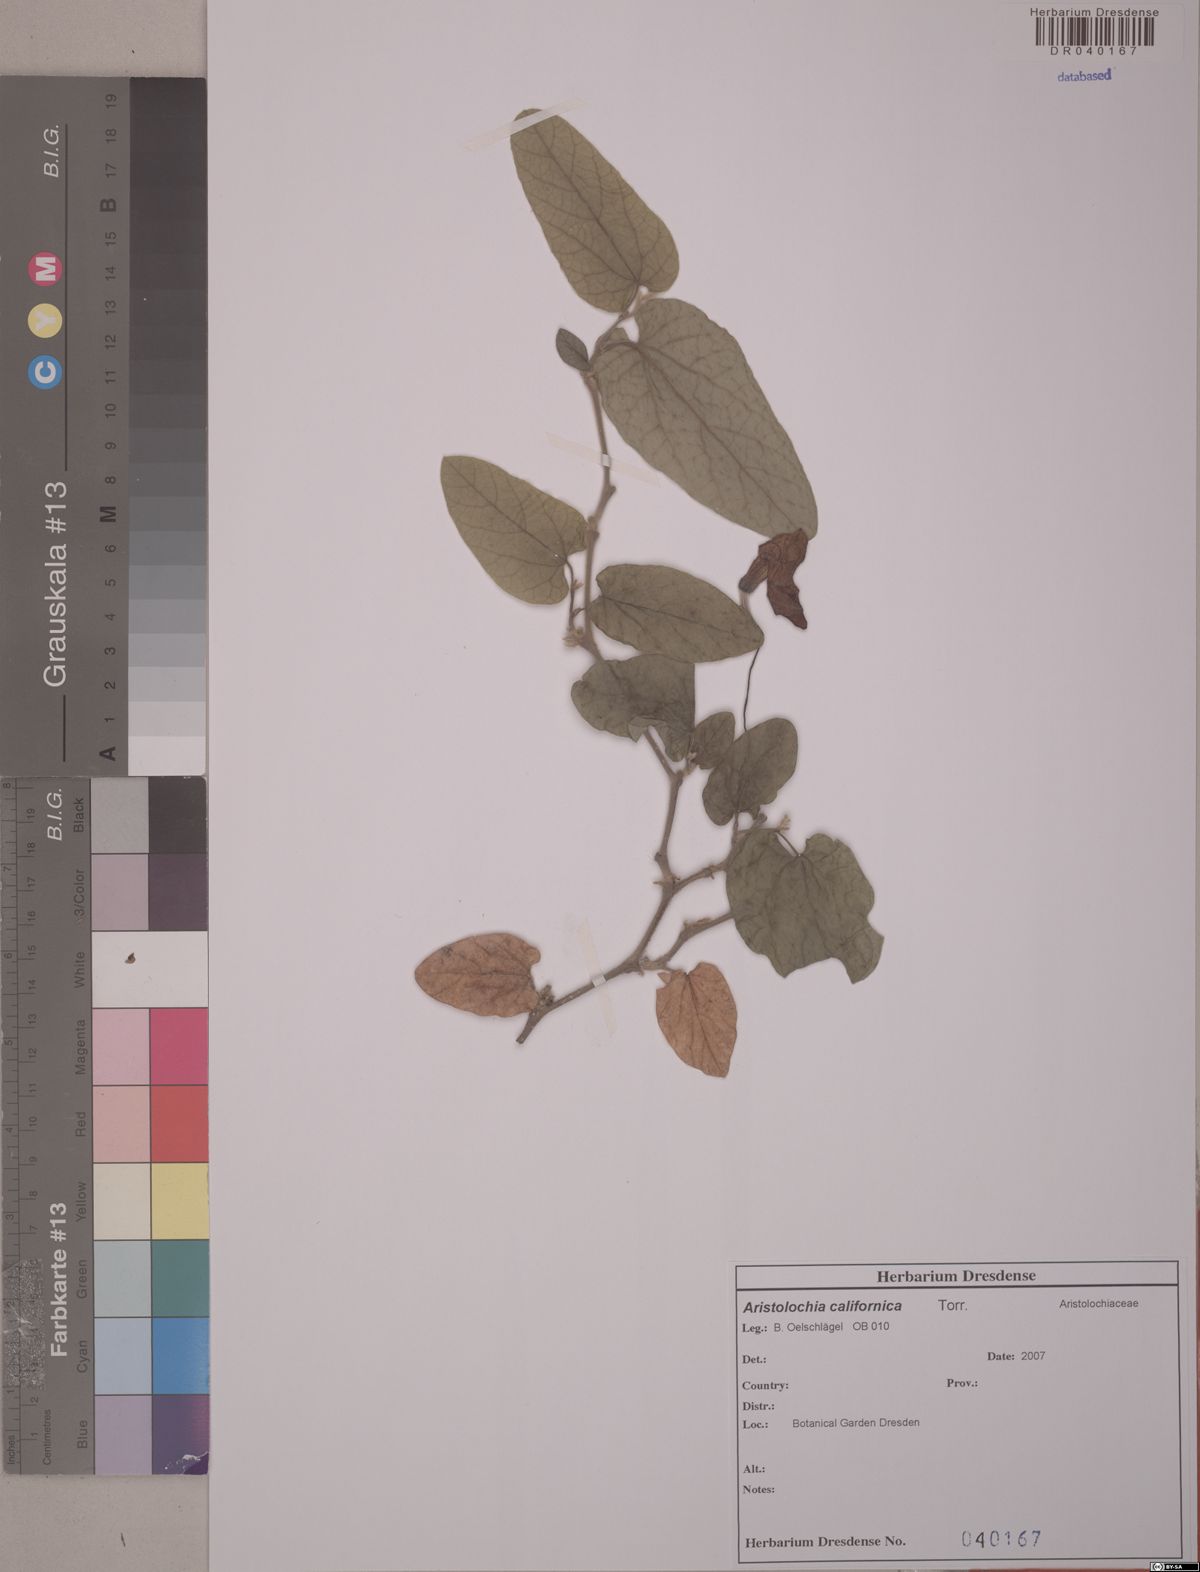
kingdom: Plantae
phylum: Tracheophyta
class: Magnoliopsida
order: Piperales
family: Aristolochiaceae
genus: Isotrema
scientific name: Isotrema californicum
